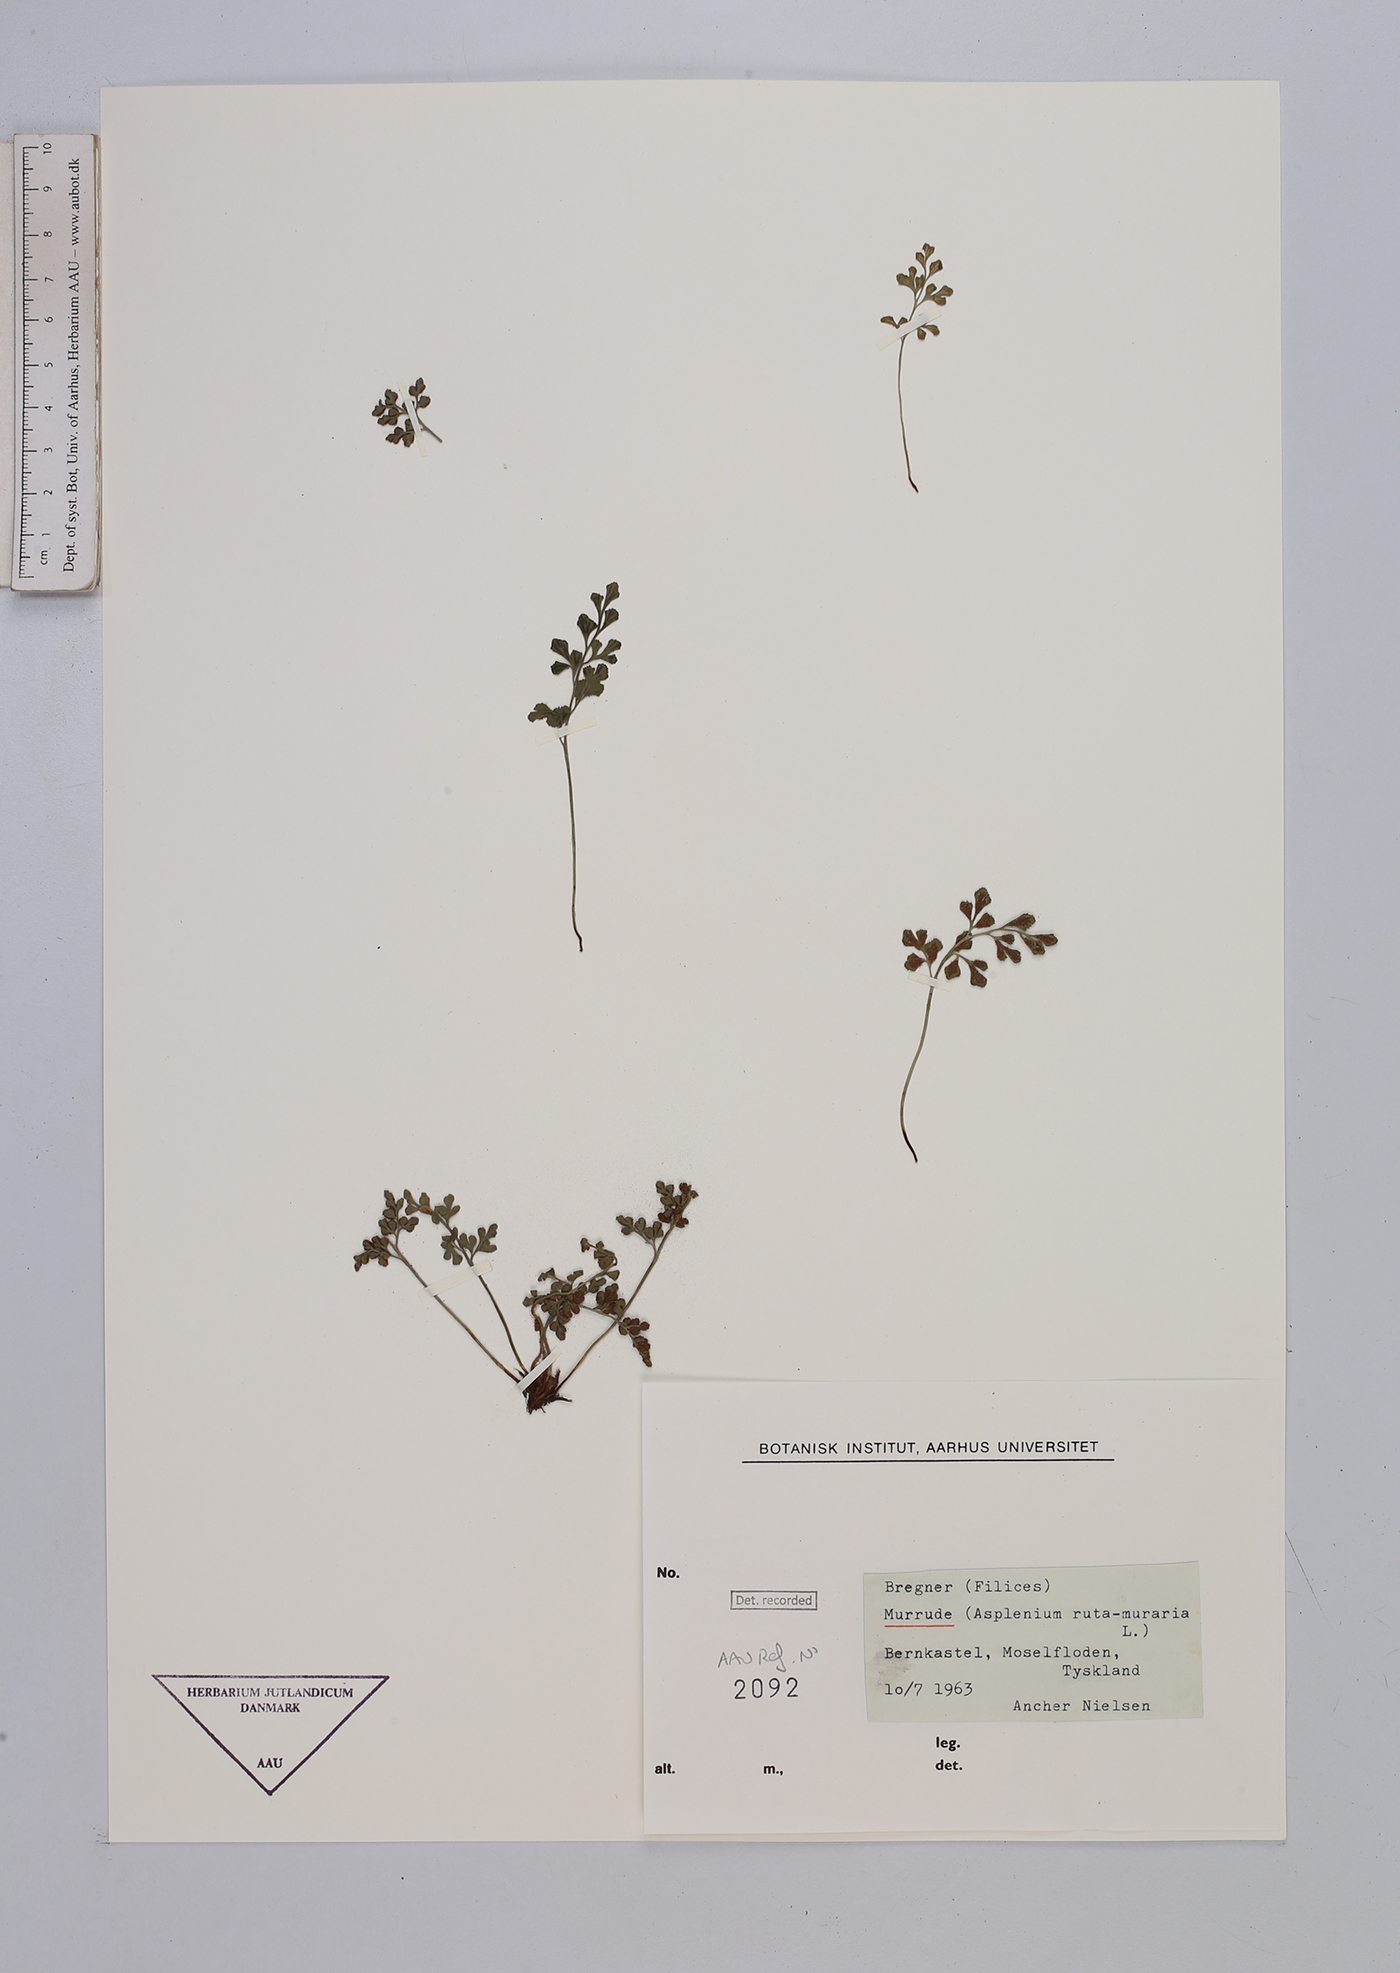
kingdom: Plantae
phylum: Tracheophyta
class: Polypodiopsida
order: Polypodiales
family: Aspleniaceae
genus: Asplenium
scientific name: Asplenium ruta-muraria
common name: Wall-rue
